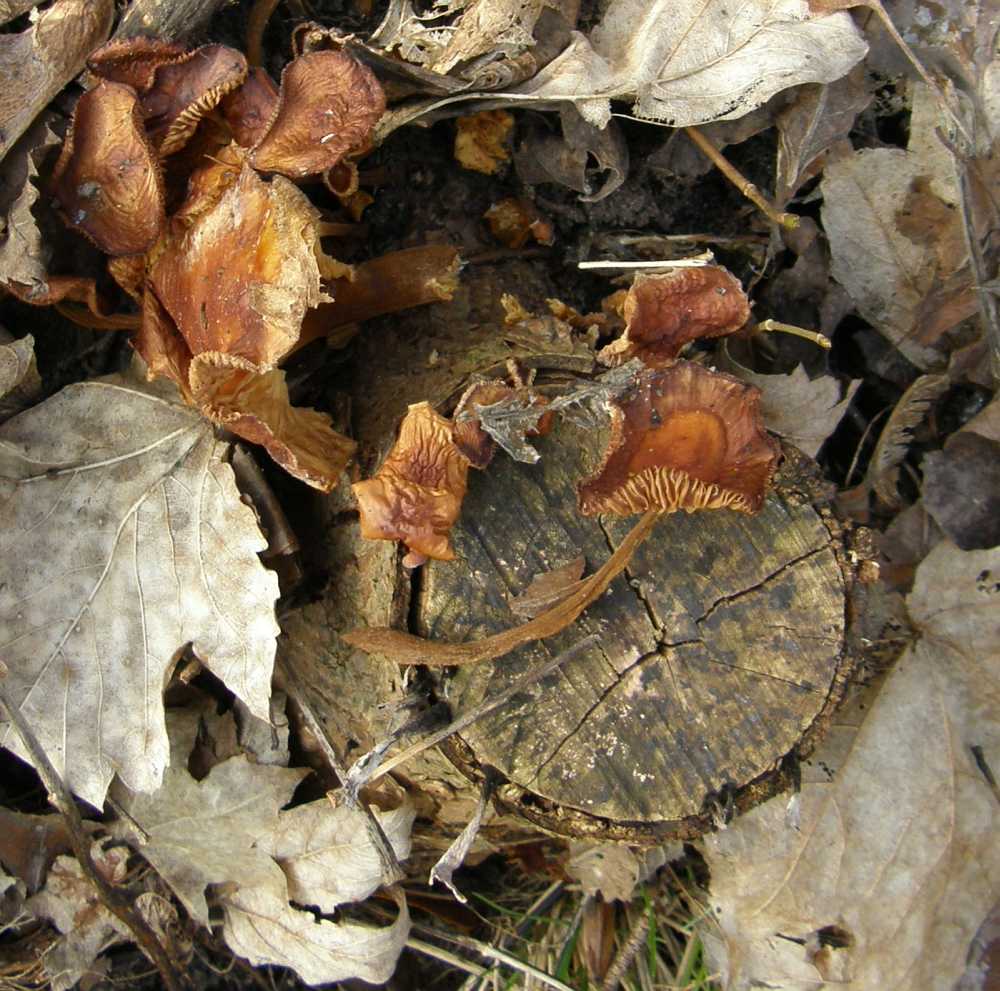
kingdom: Fungi
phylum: Basidiomycota
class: Agaricomycetes
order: Agaricales
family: Physalacriaceae
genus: Flammulina
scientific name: Flammulina velutipes
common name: gul fløjlsfod
